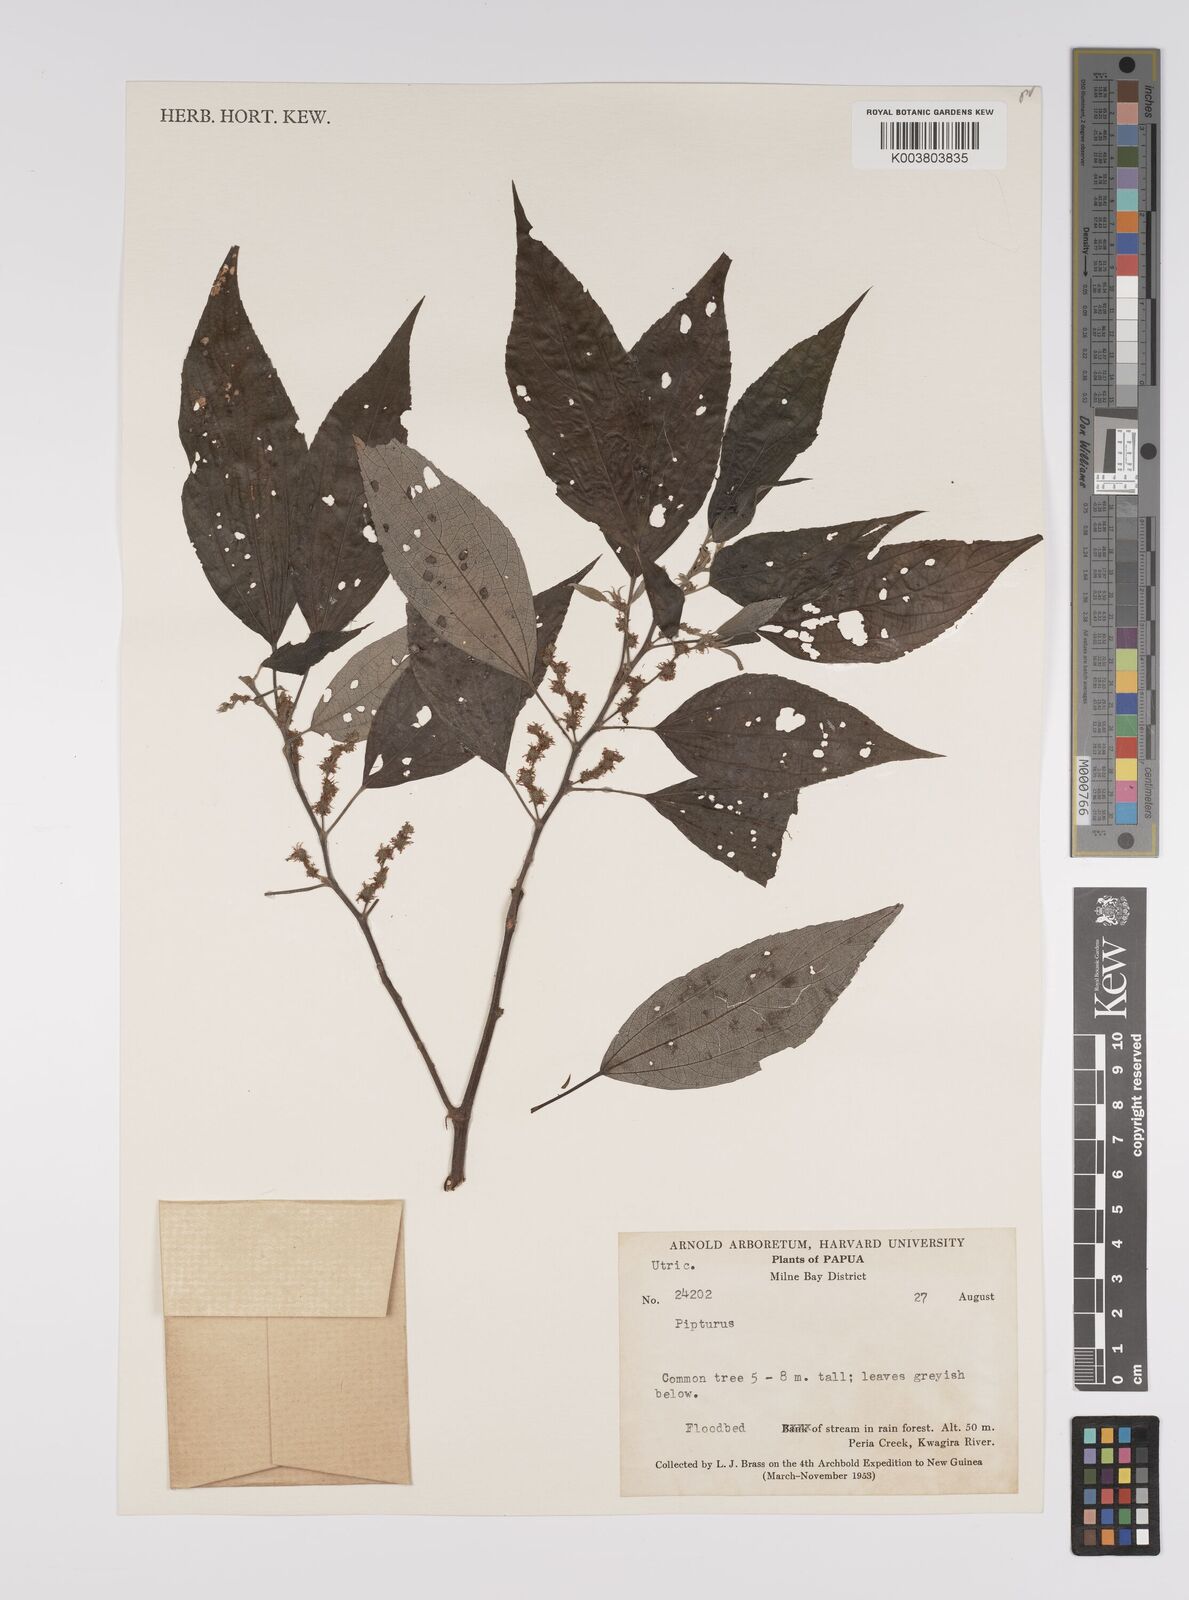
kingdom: Plantae
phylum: Tracheophyta
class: Magnoliopsida
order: Rosales
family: Urticaceae
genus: Pipturus
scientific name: Pipturus argenteus
